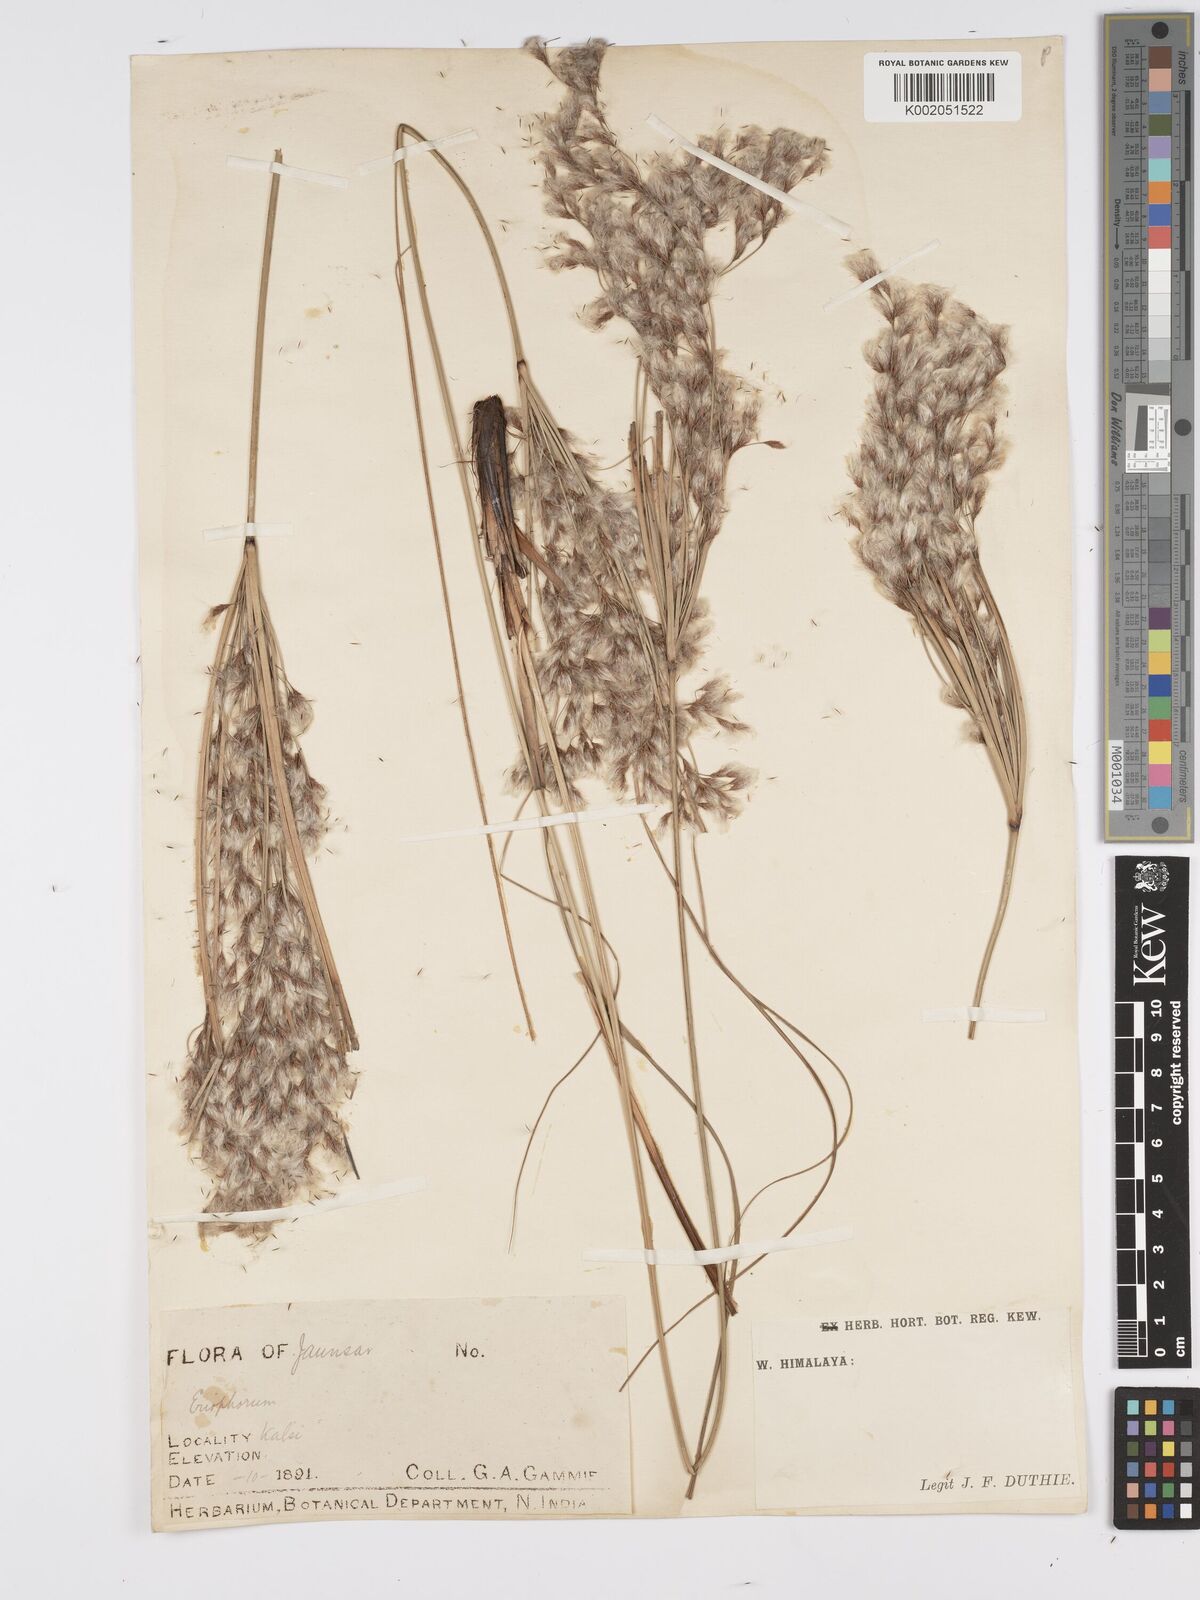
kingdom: Plantae
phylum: Tracheophyta
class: Liliopsida
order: Poales
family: Cyperaceae
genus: Erioscirpus
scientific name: Erioscirpus comosus
